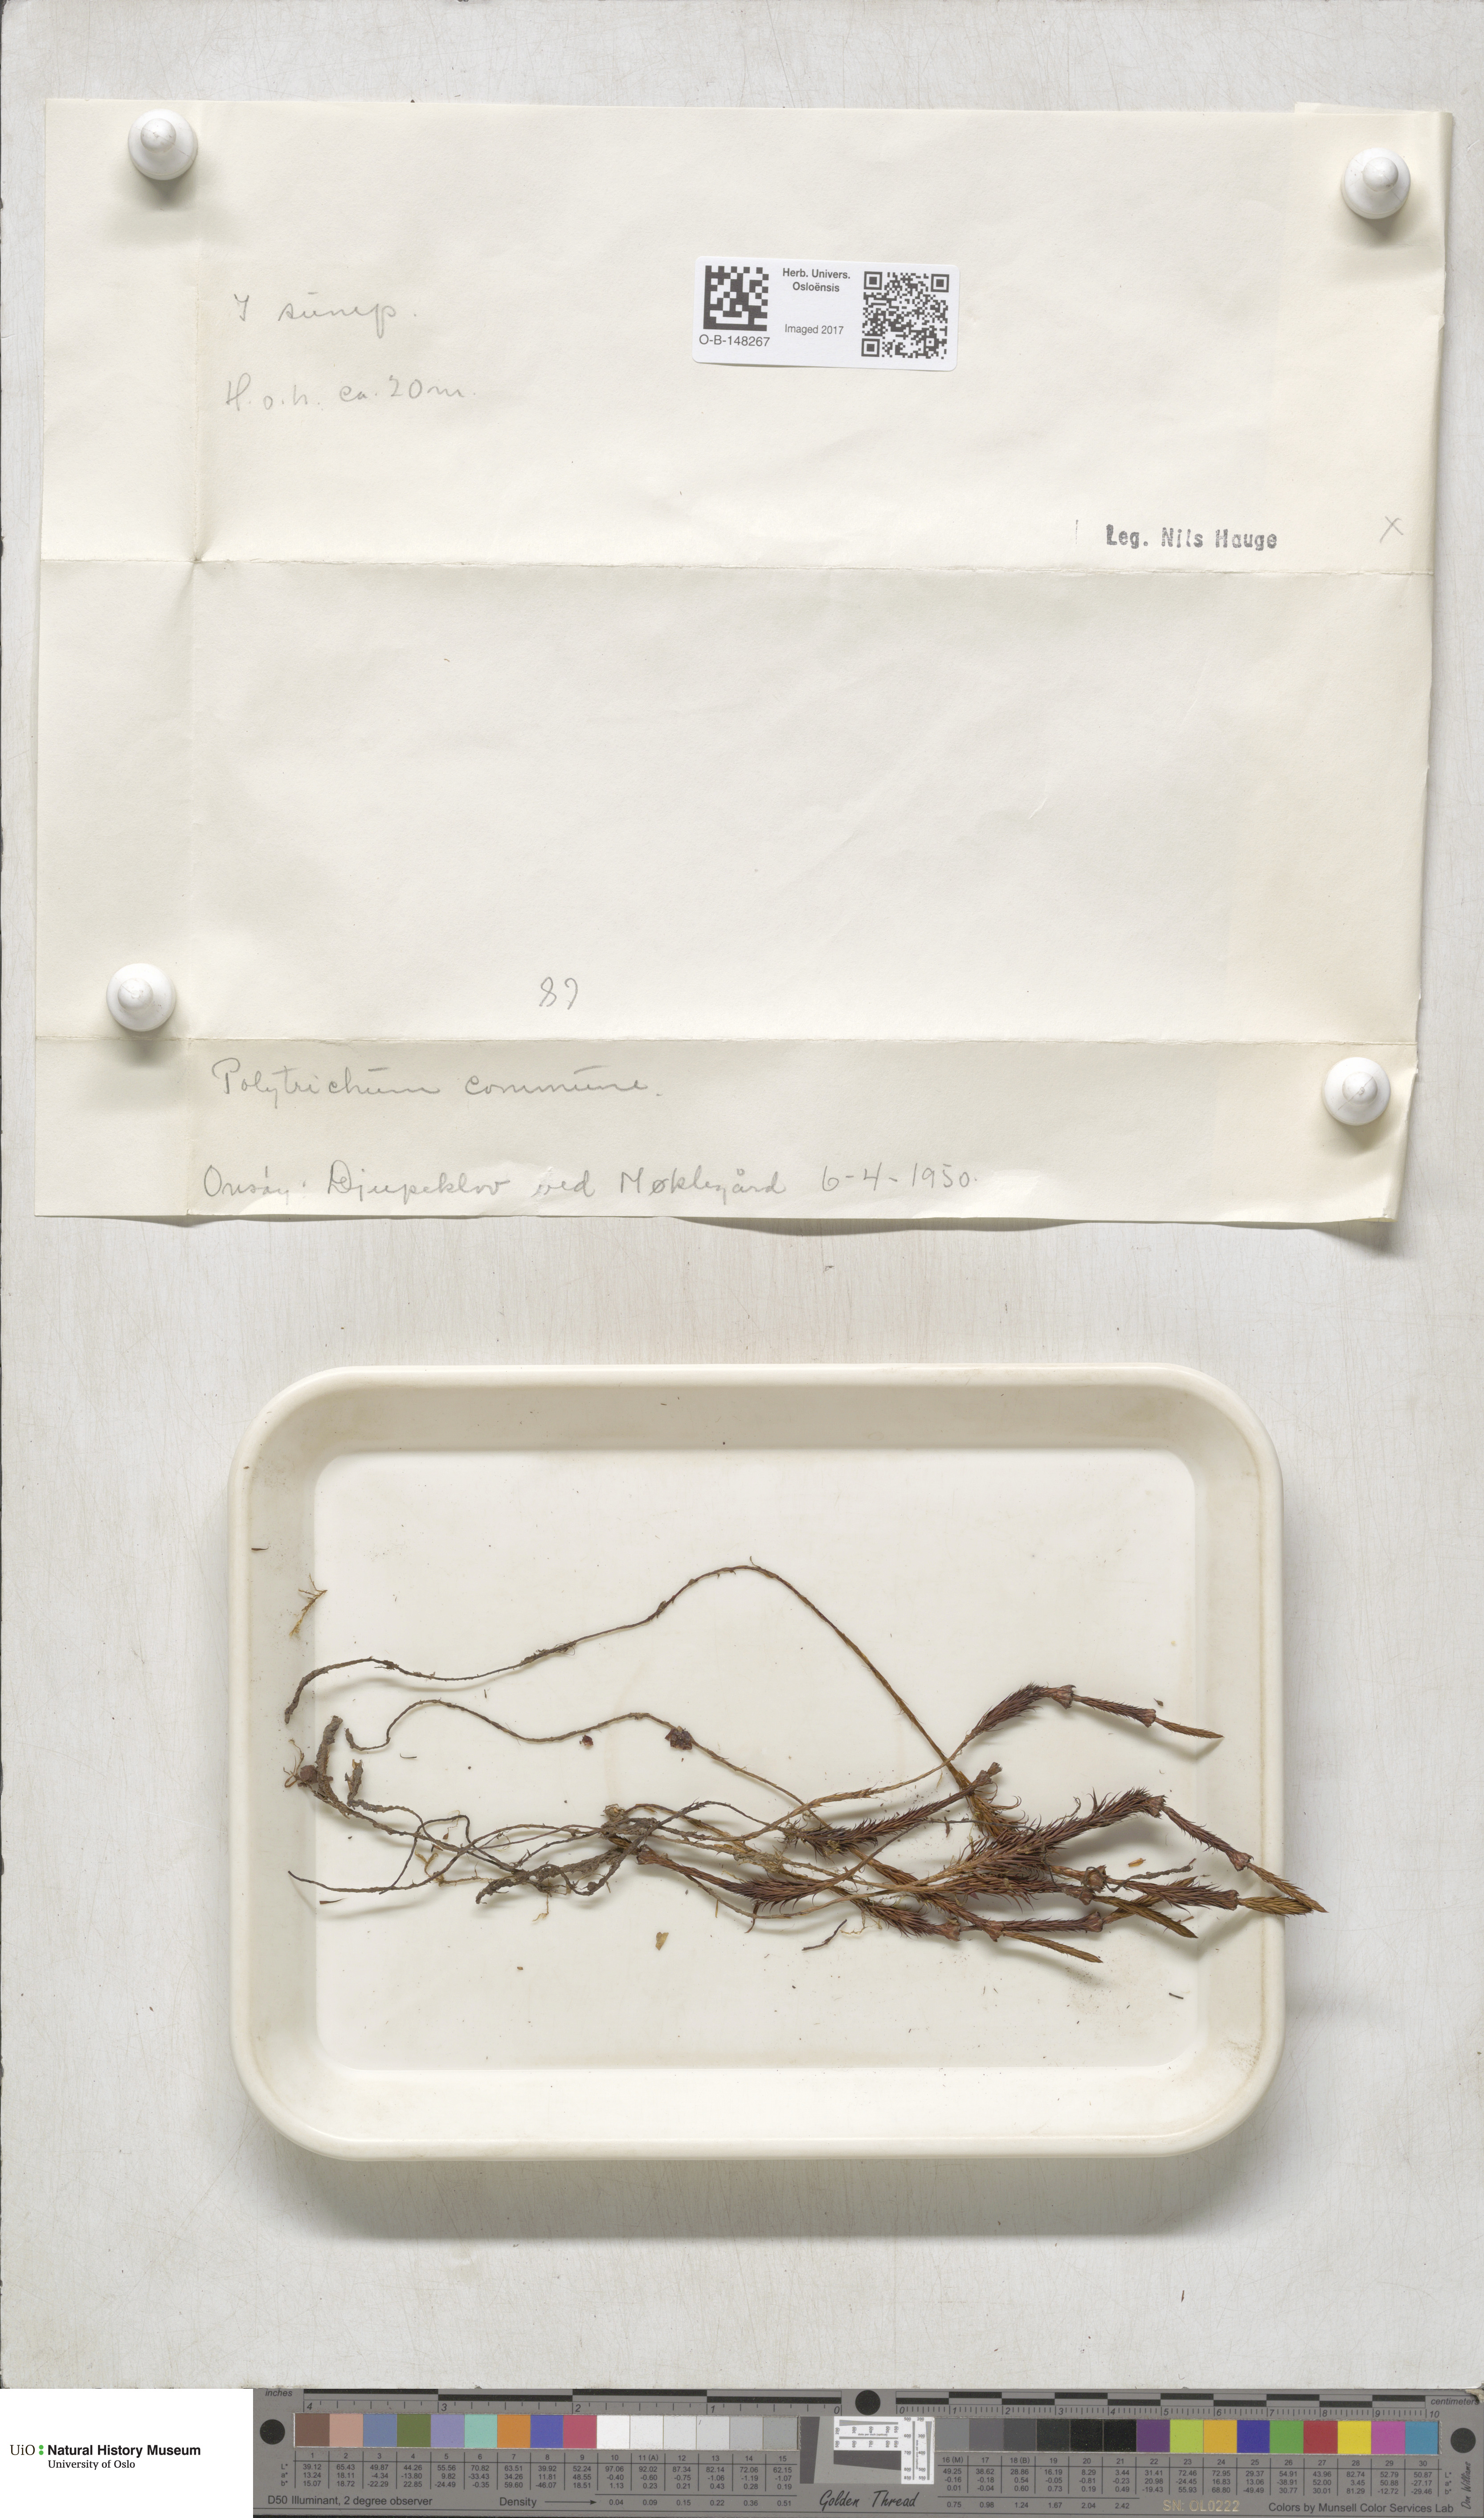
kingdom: Plantae
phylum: Bryophyta
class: Polytrichopsida
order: Polytrichales
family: Polytrichaceae
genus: Polytrichum
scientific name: Polytrichum commune
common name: Common haircap
